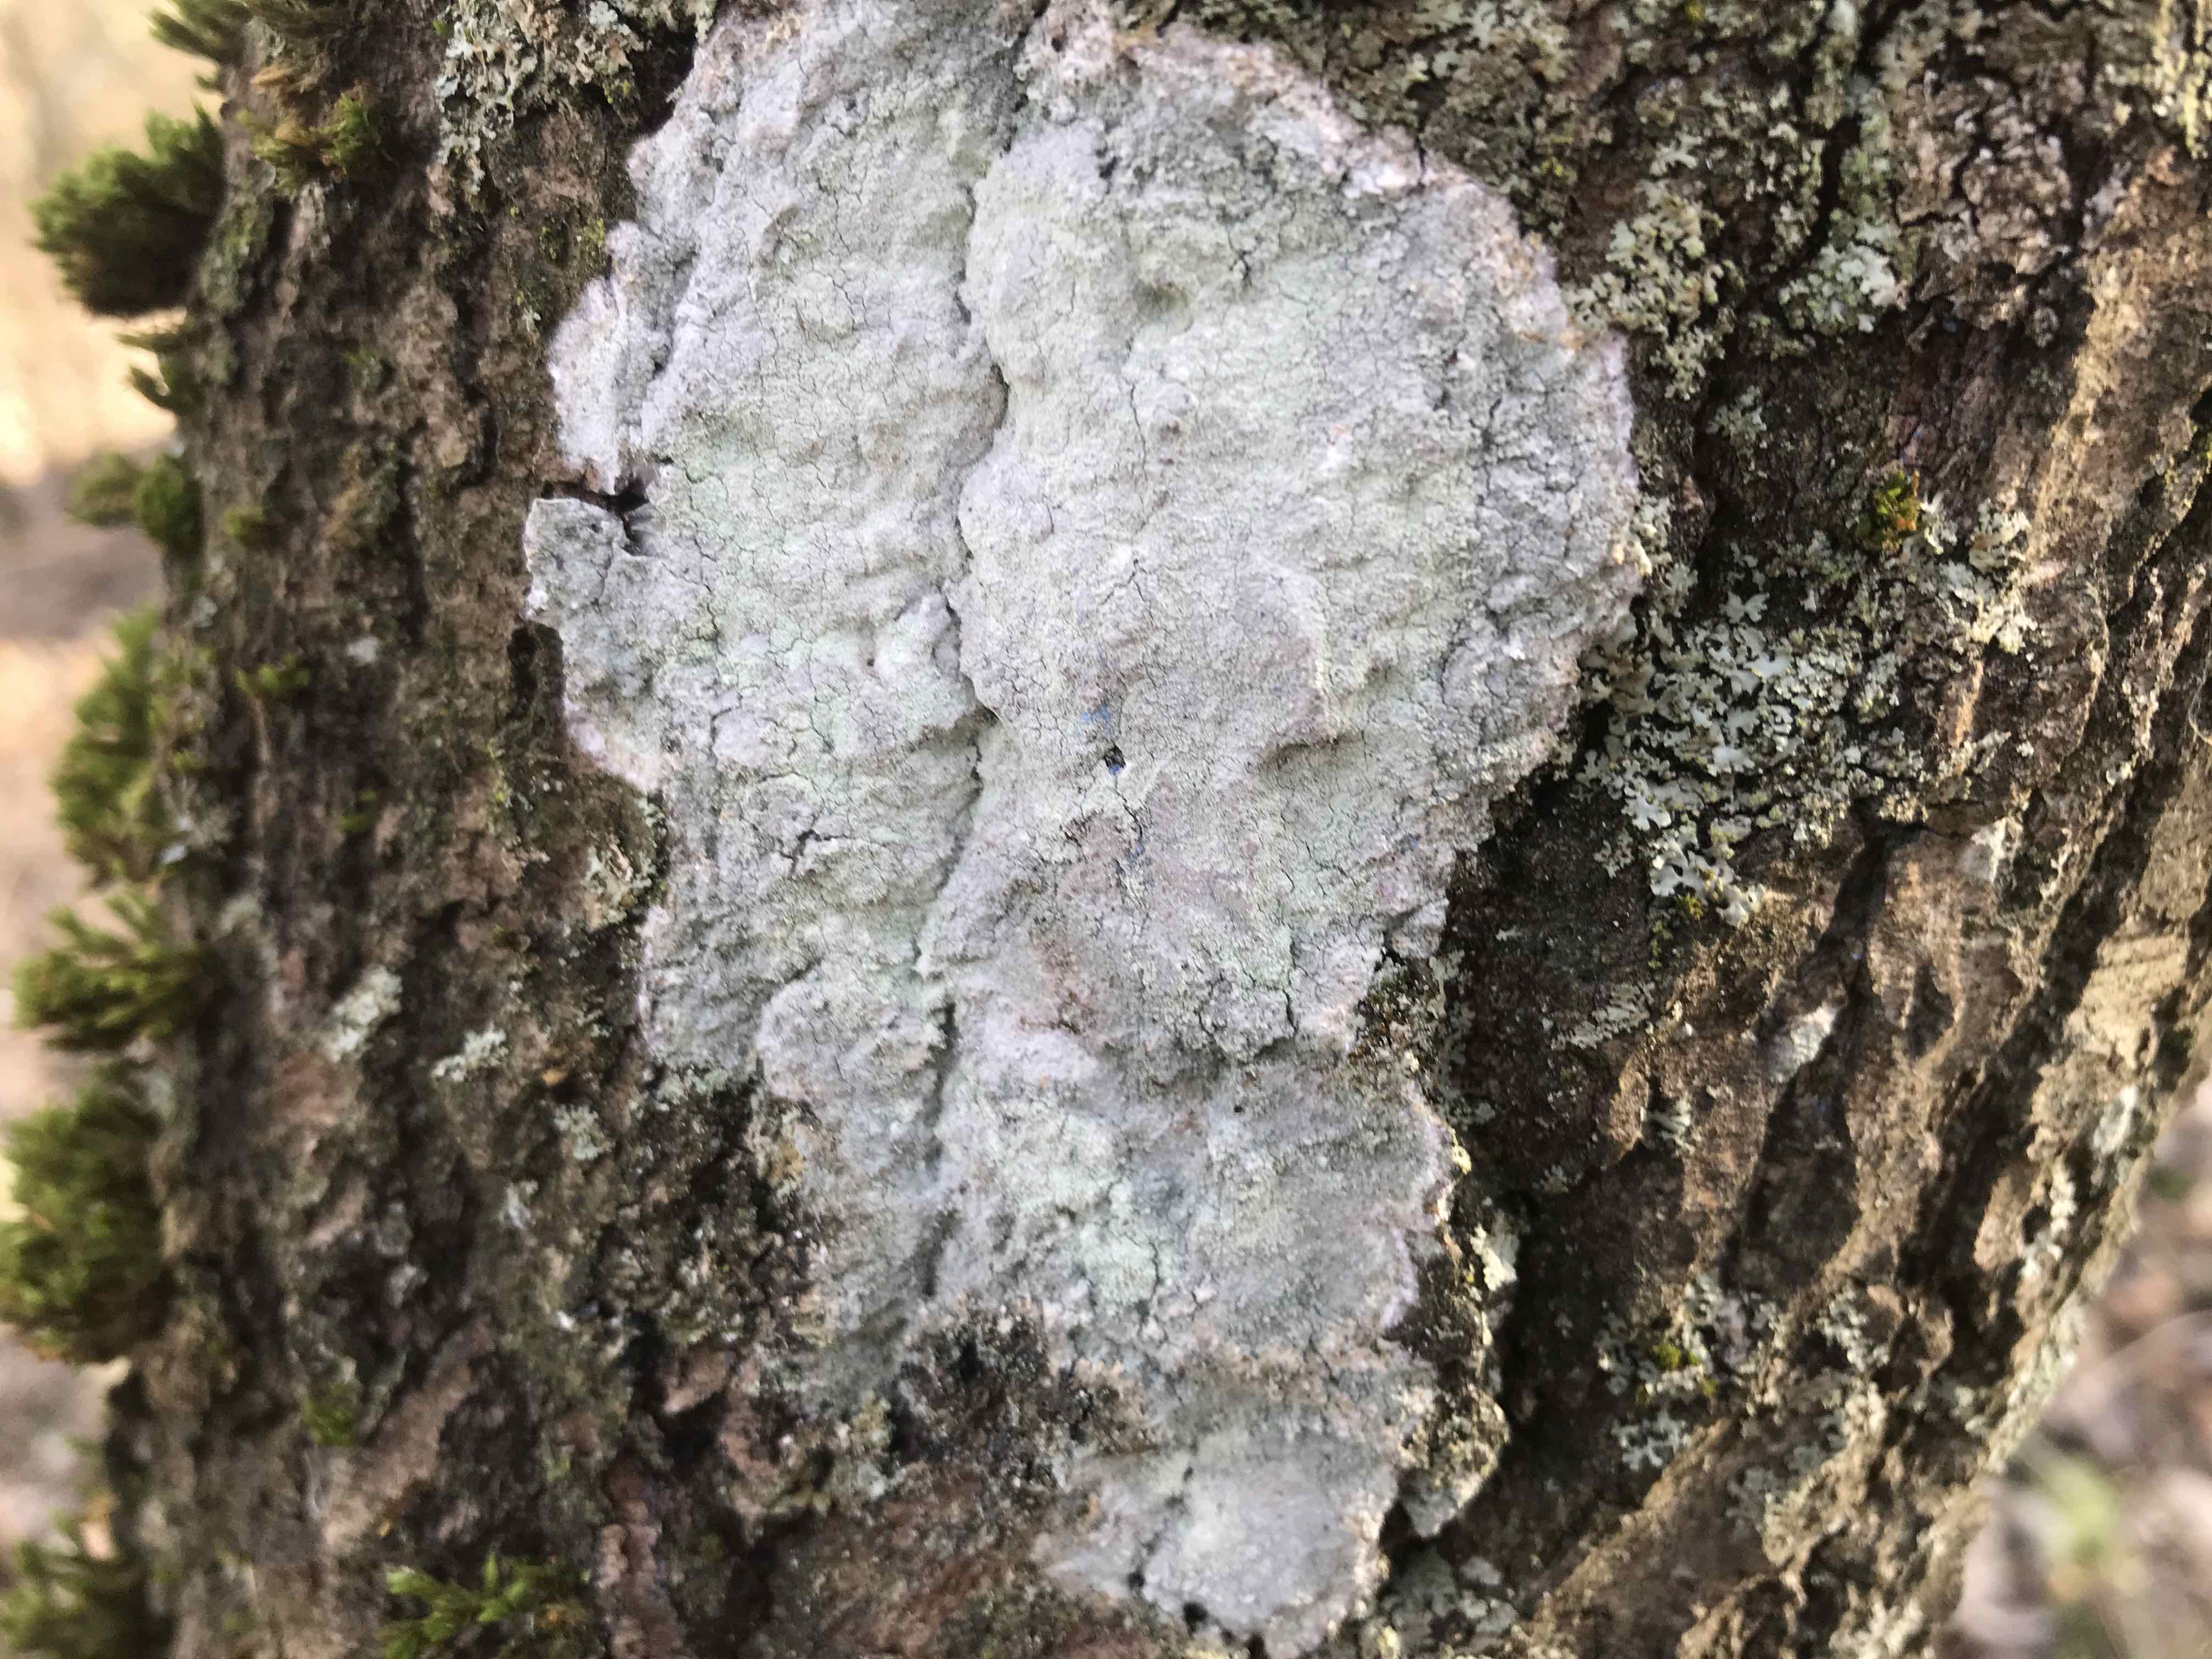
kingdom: Fungi
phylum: Ascomycota
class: Lecanoromycetes
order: Ostropales
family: Phlyctidaceae
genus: Phlyctis
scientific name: Phlyctis argena
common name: almindelig sølvlav
